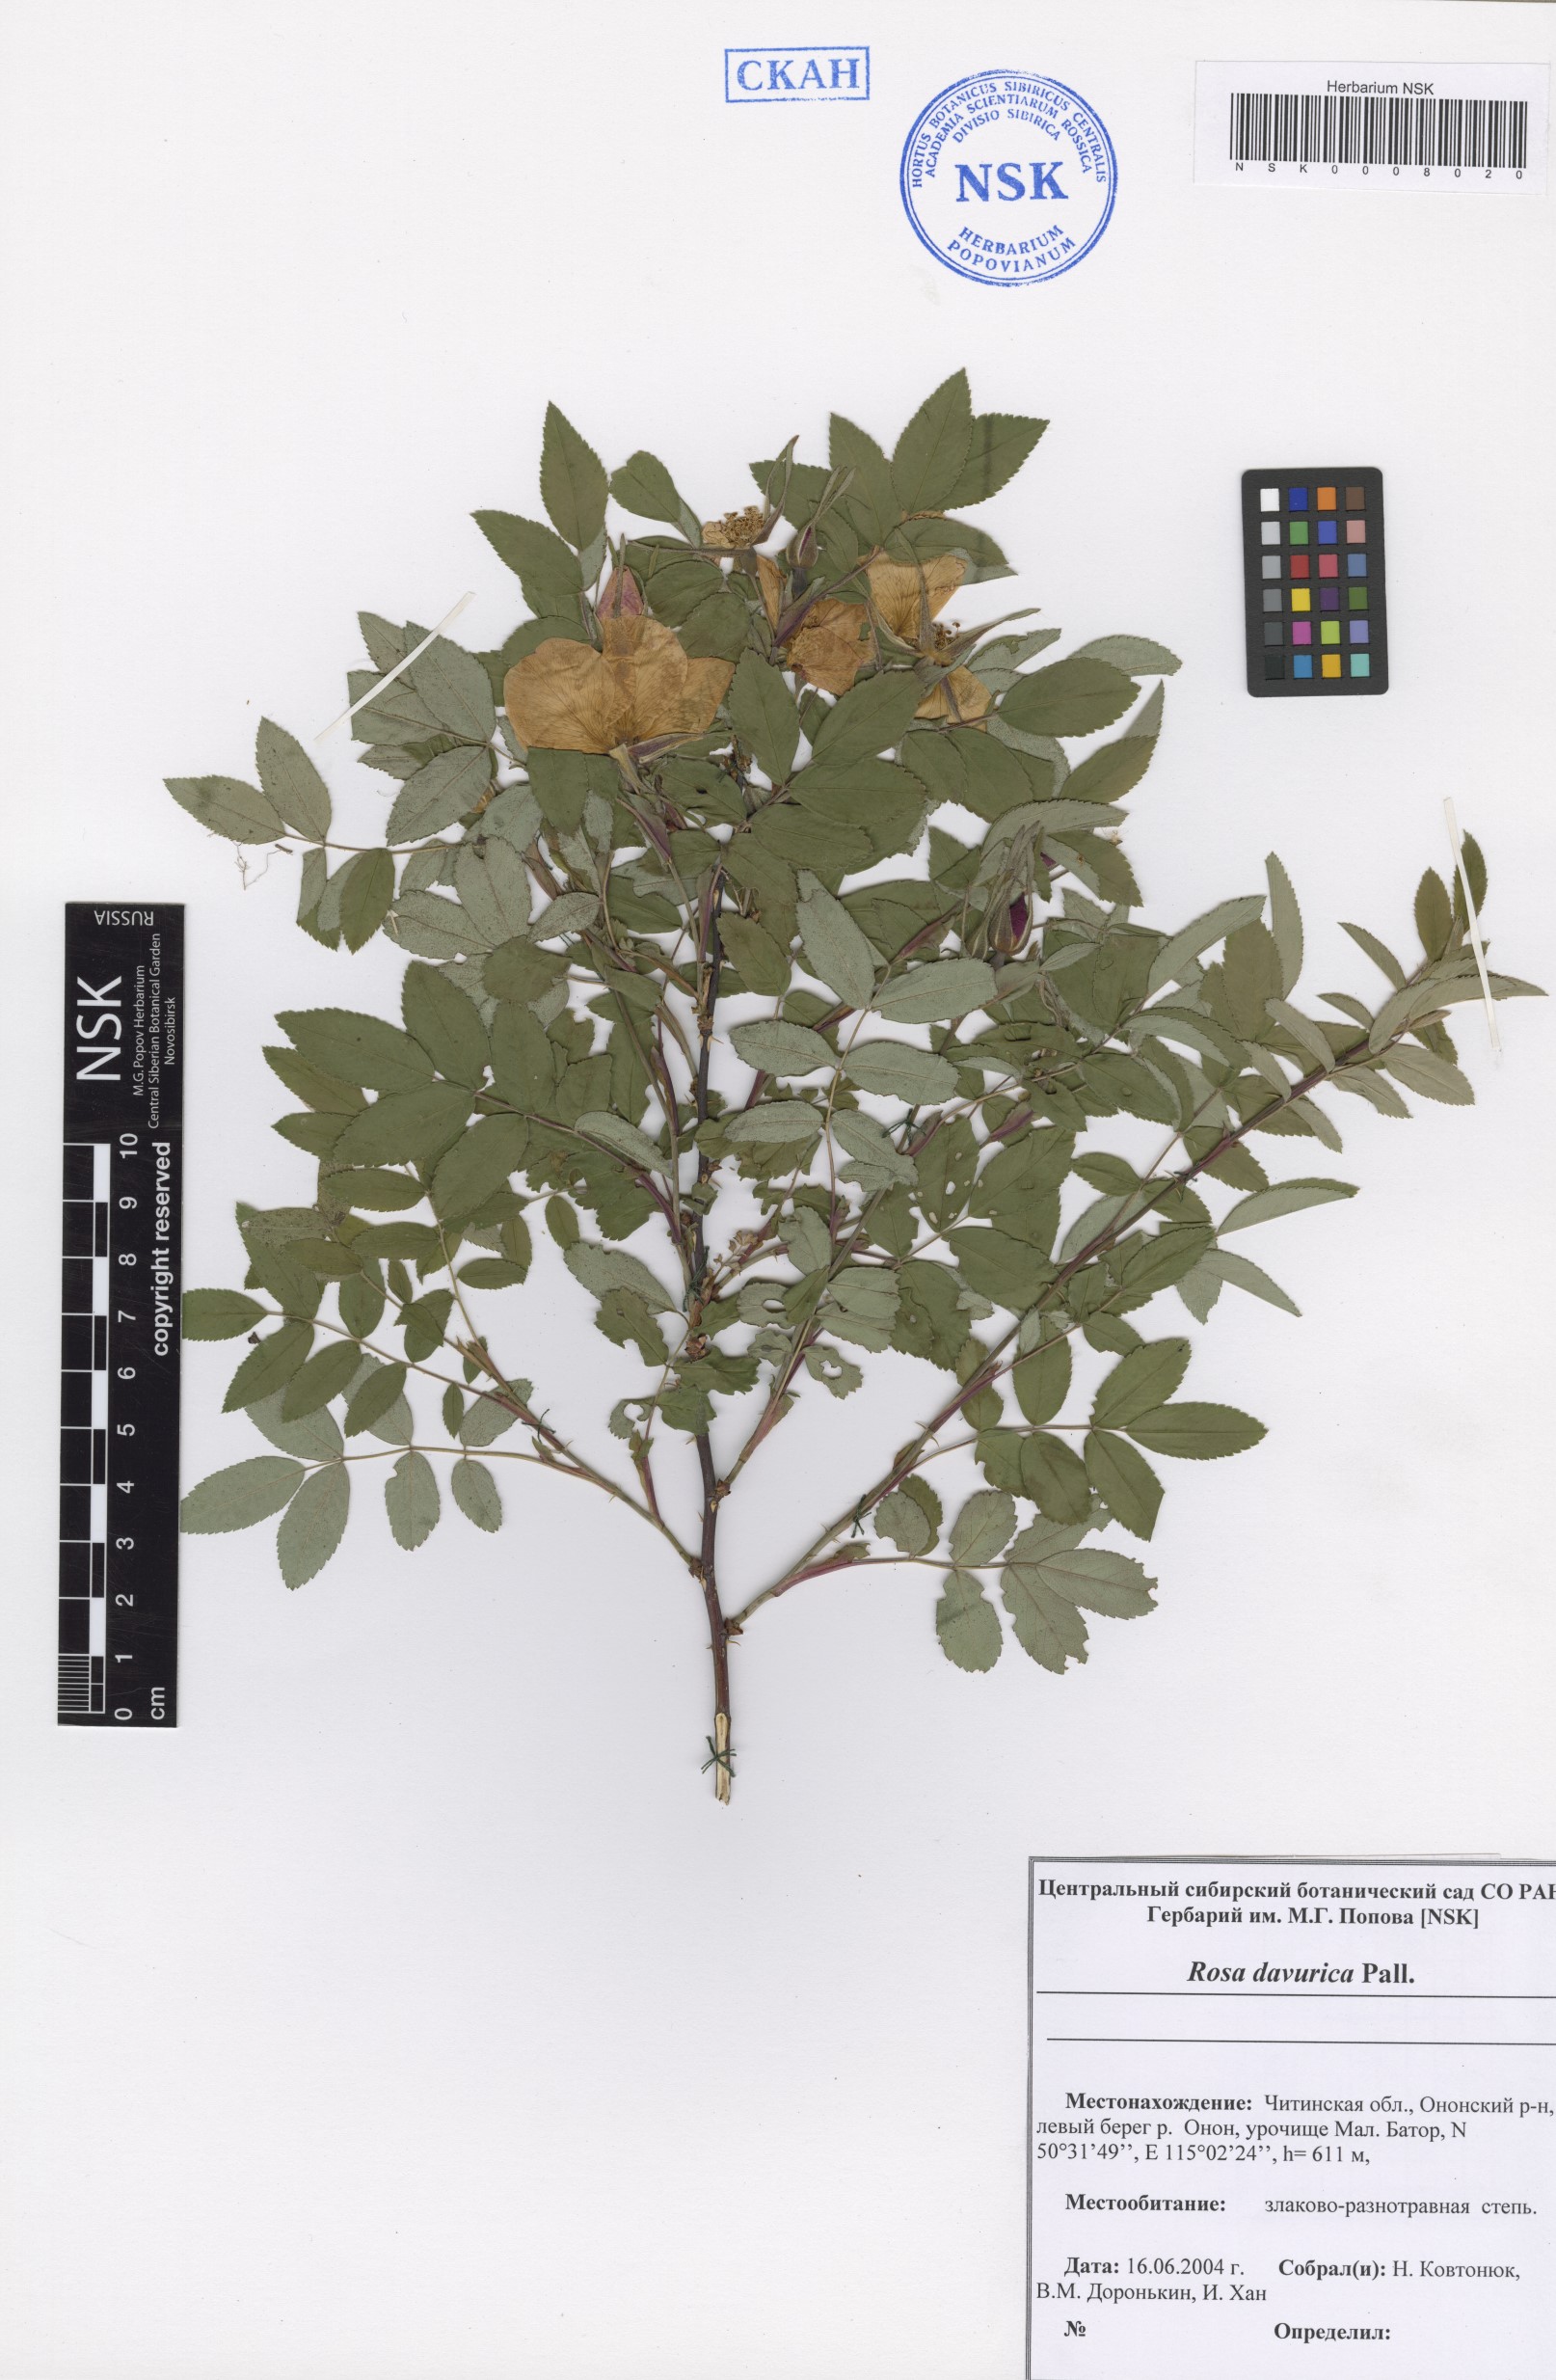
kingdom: Plantae
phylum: Tracheophyta
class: Magnoliopsida
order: Rosales
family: Rosaceae
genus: Rosa
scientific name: Rosa davurica
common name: Amur rose
